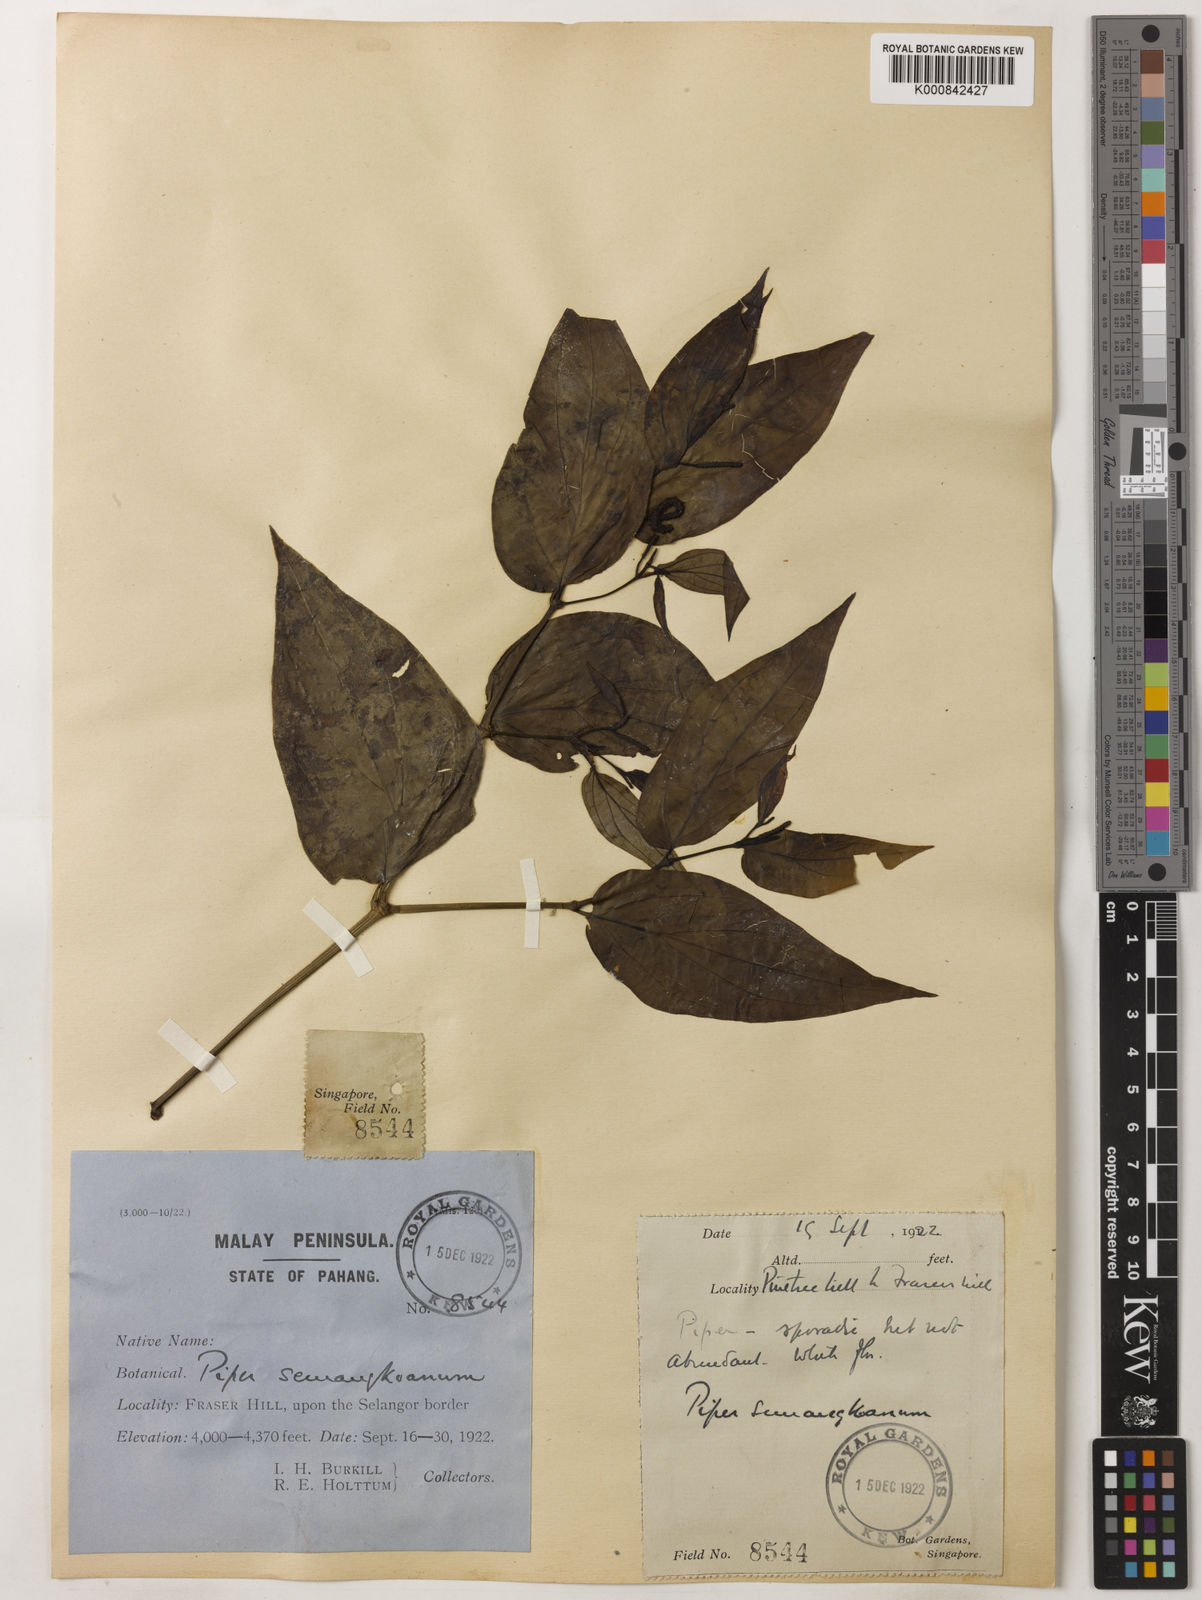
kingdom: Plantae
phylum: Tracheophyta
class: Magnoliopsida
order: Piperales
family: Piperaceae
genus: Piper
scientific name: Piper semangkoanum
